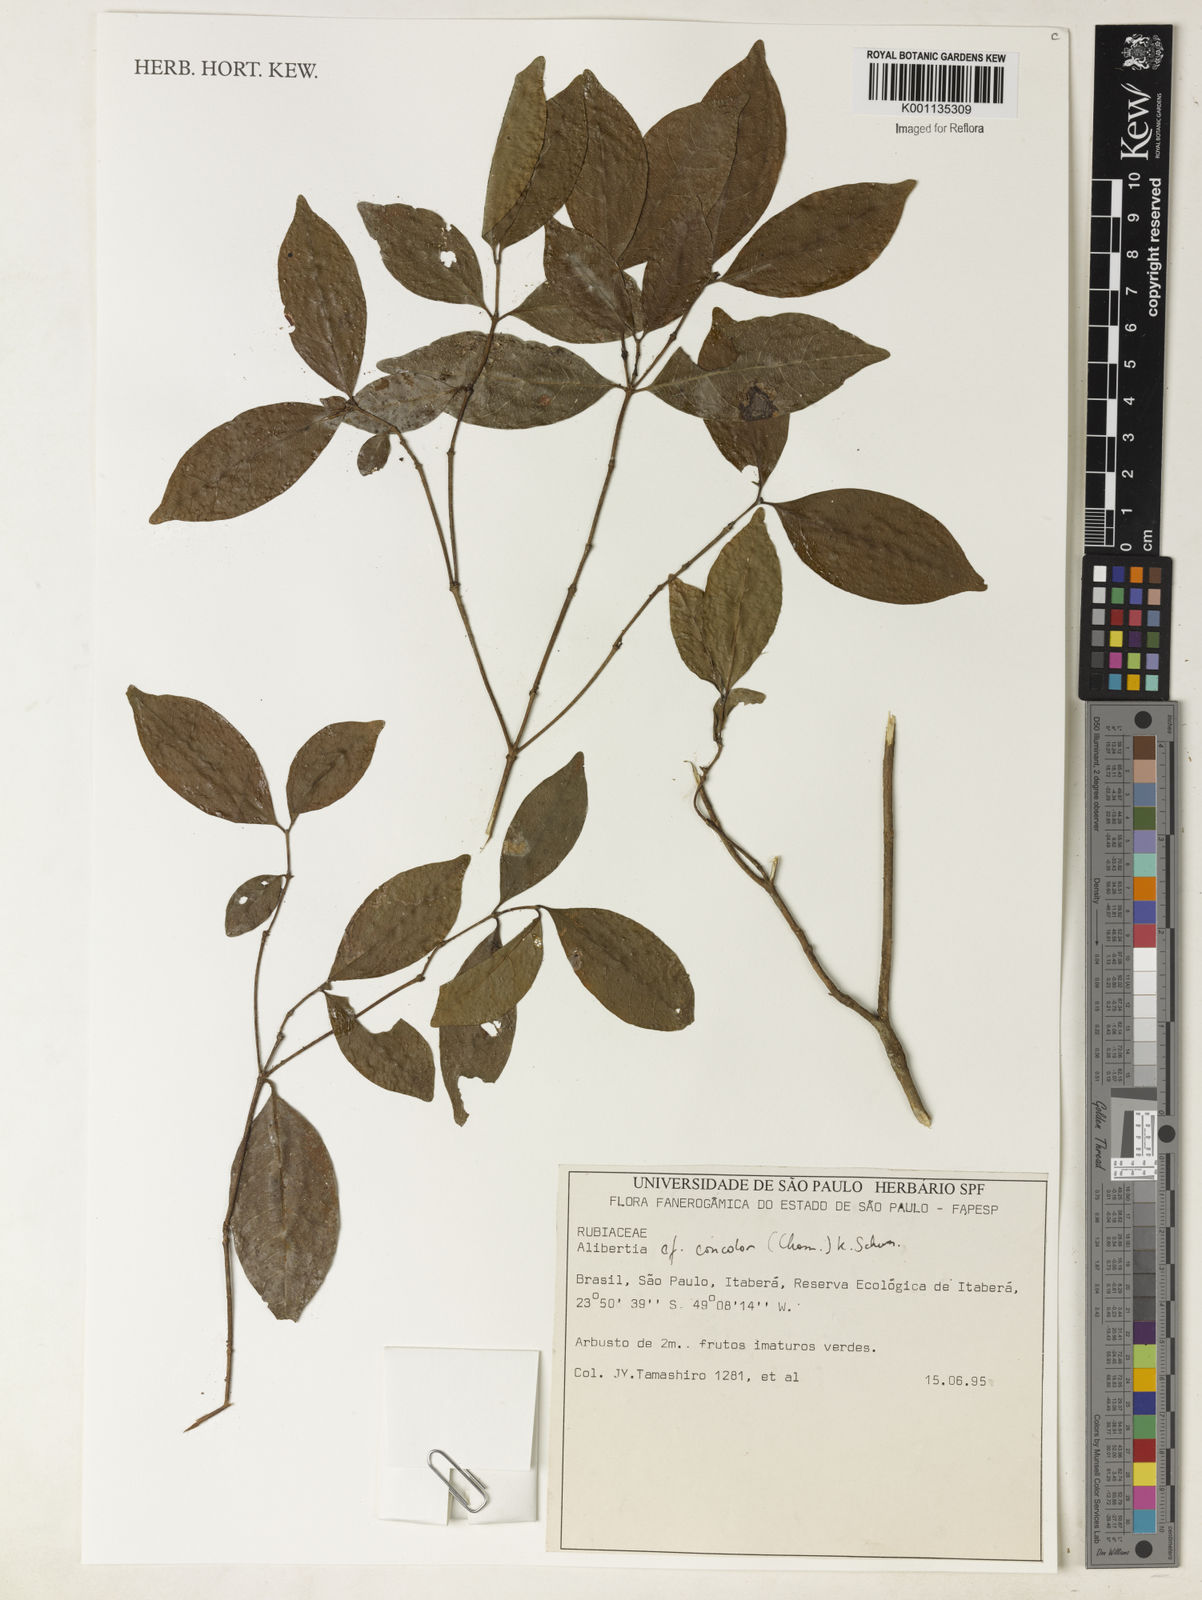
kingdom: Plantae
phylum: Tracheophyta
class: Magnoliopsida
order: Gentianales
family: Rubiaceae
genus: Cordiera
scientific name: Cordiera concolor
